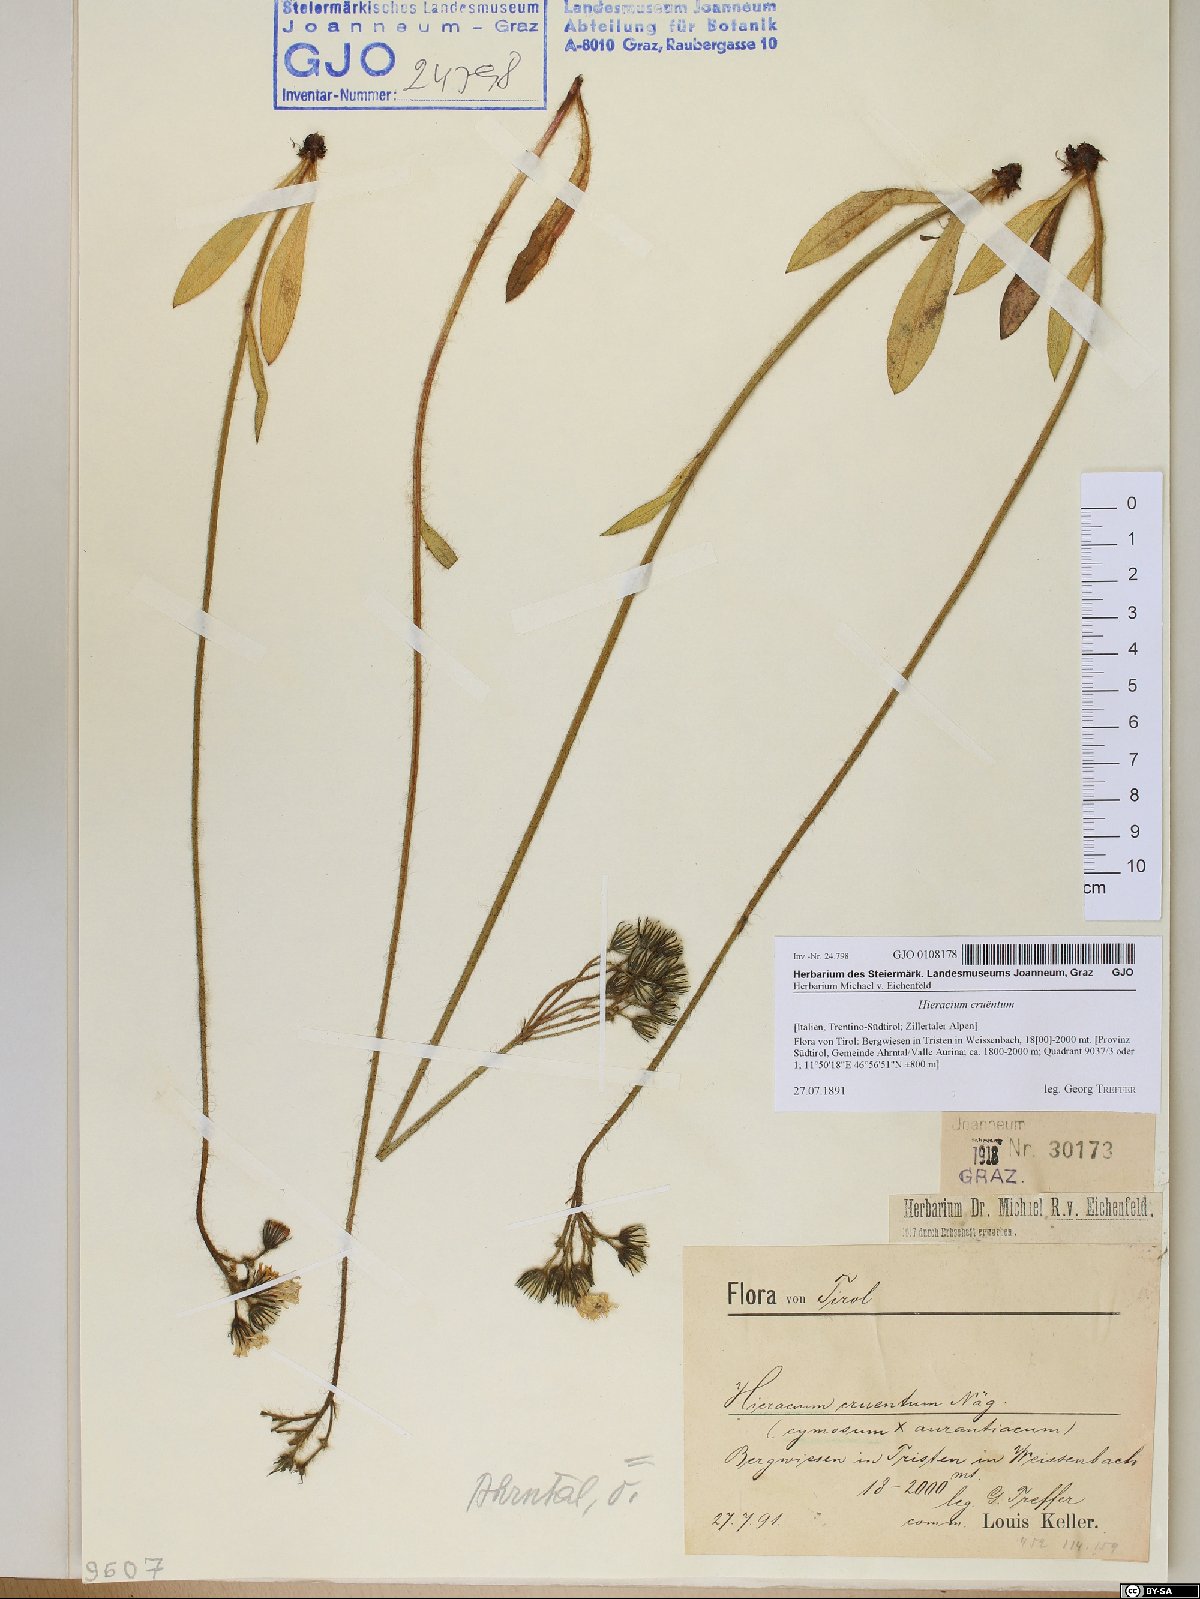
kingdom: Plantae
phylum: Tracheophyta
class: Magnoliopsida
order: Asterales
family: Asteraceae
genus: Pilosella
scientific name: Pilosella guthnikiana
